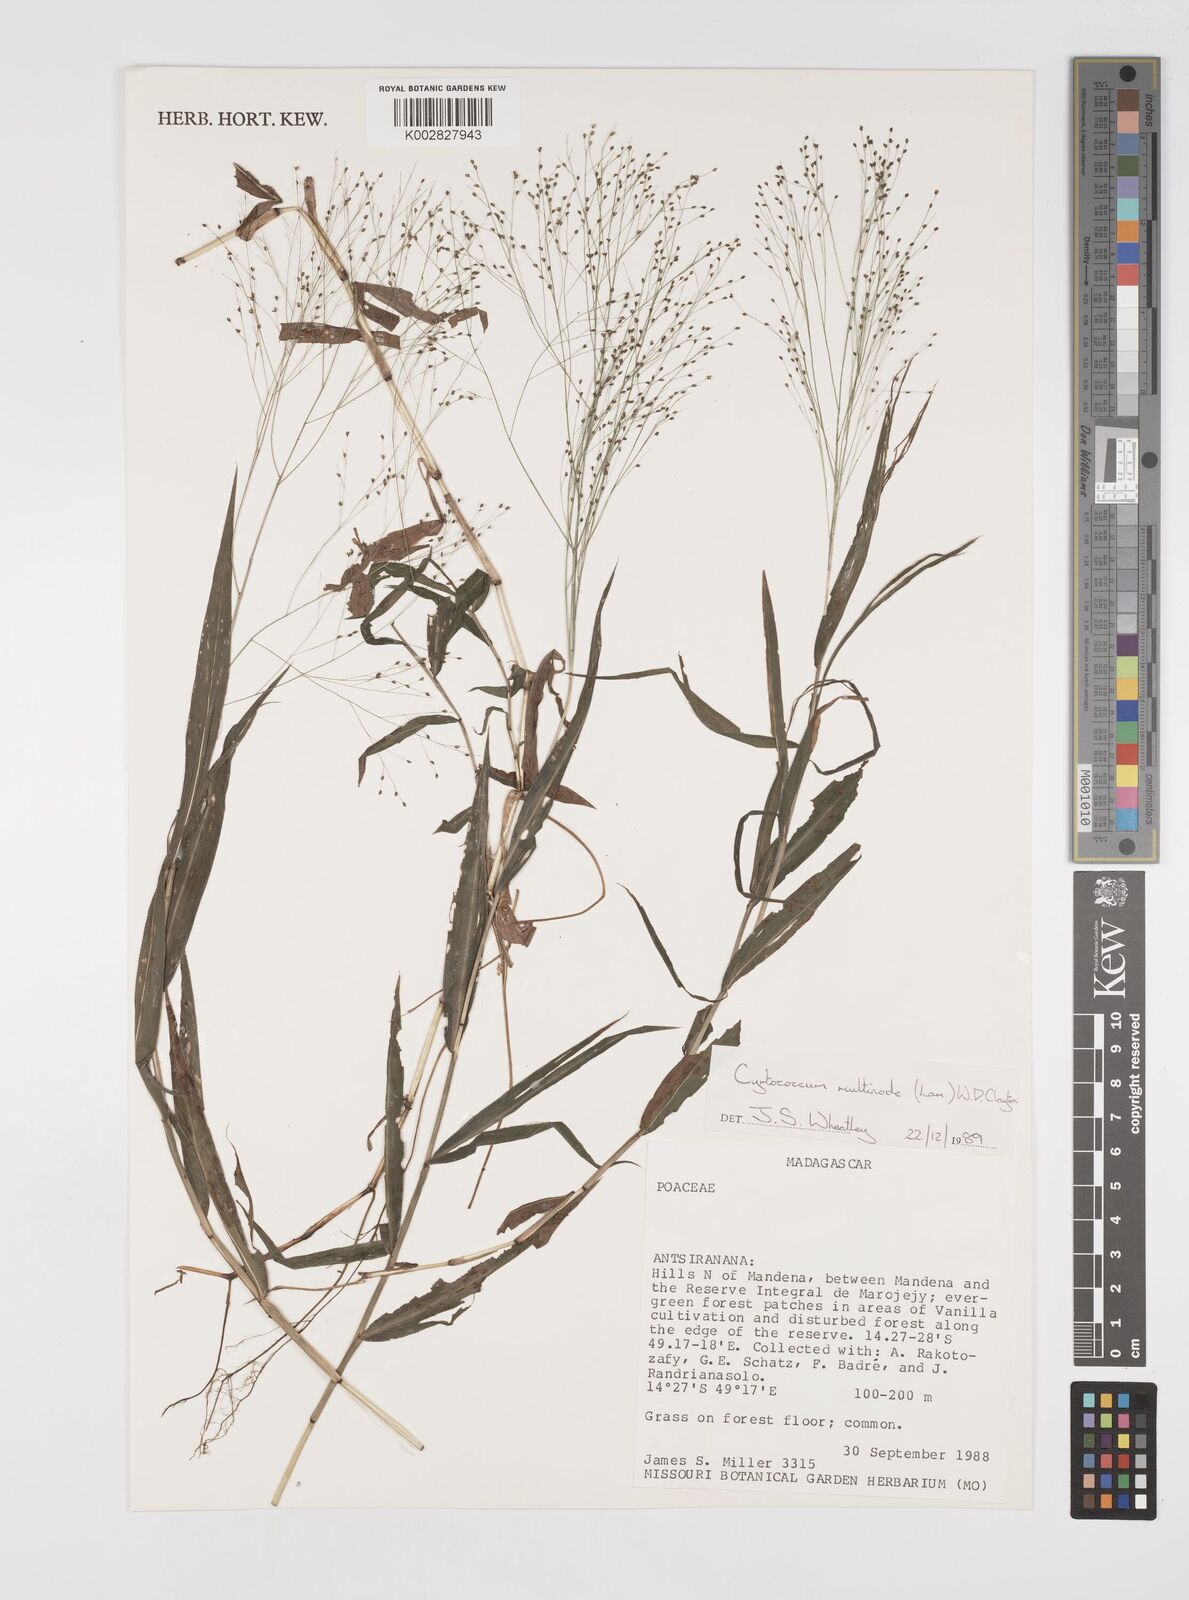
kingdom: Plantae
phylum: Tracheophyta
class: Liliopsida
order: Poales
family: Poaceae
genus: Cyrtococcum
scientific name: Cyrtococcum multinode
